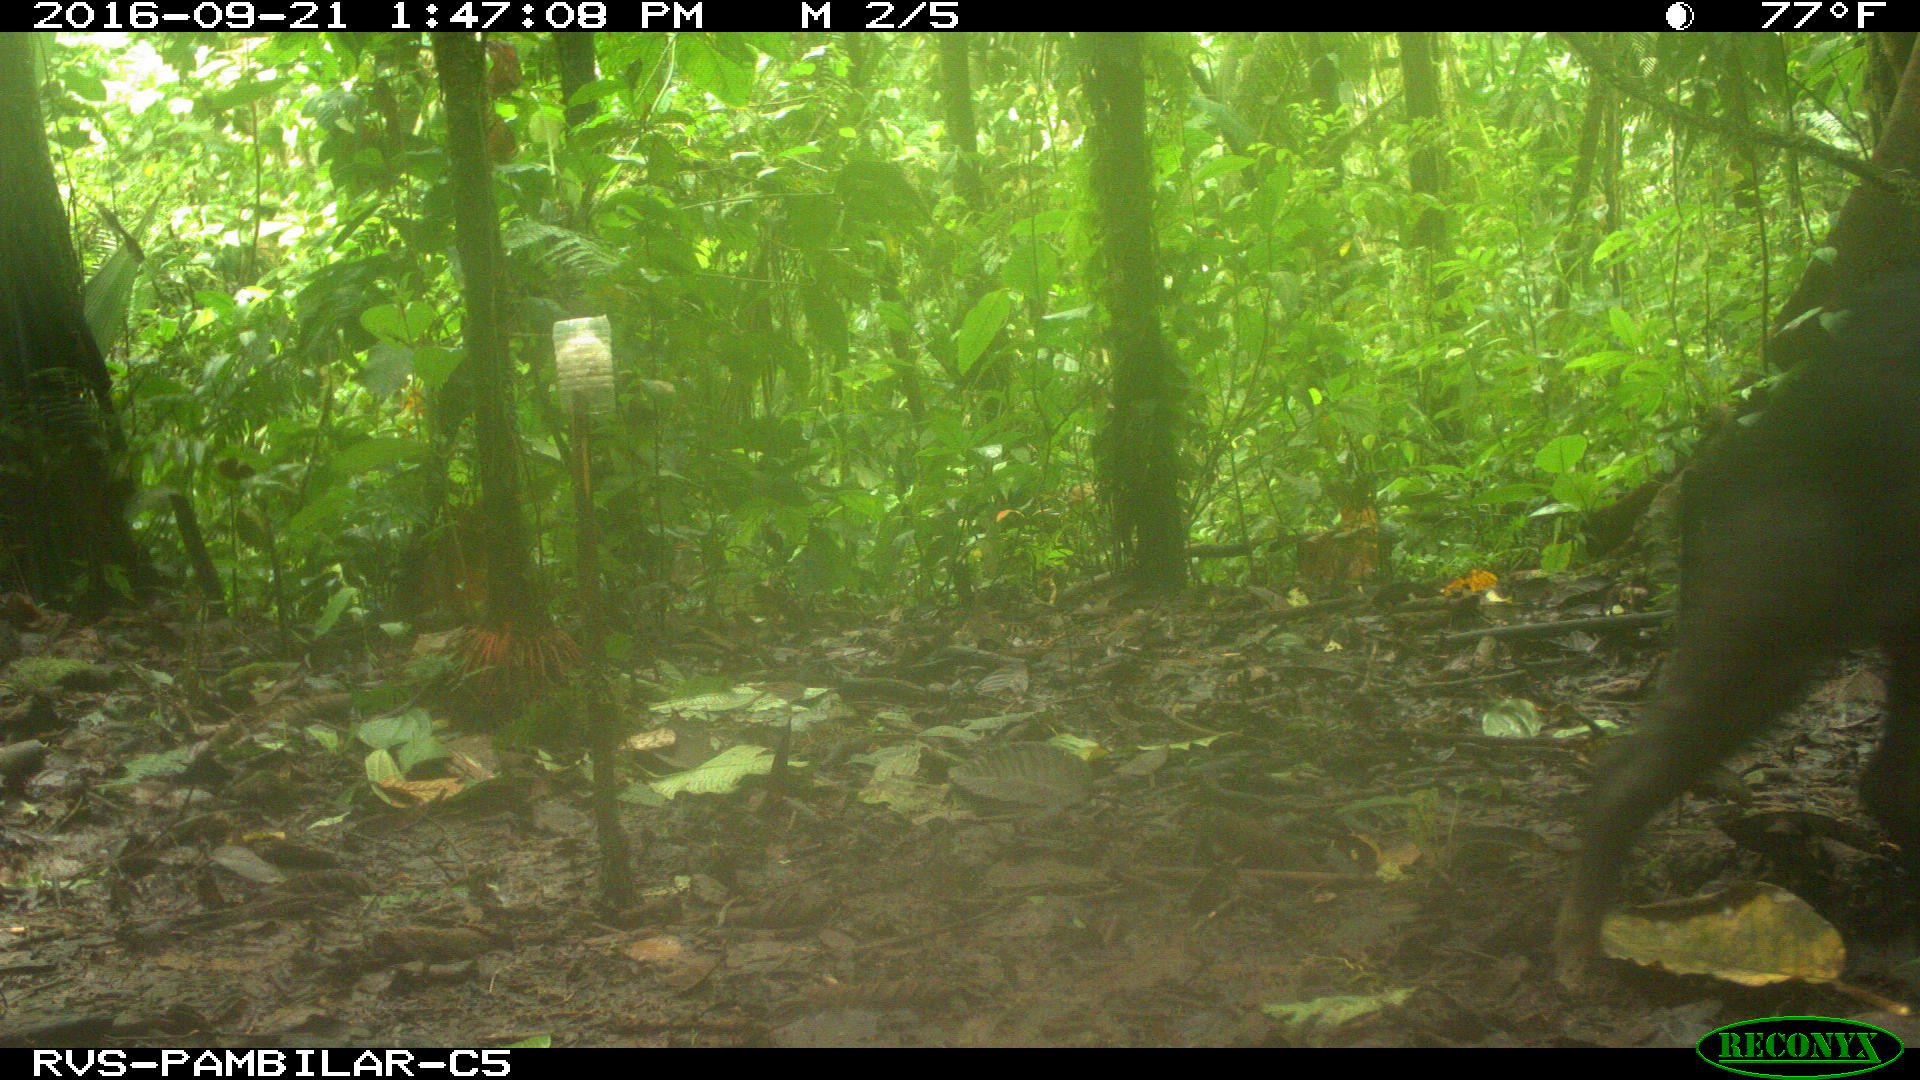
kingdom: Animalia
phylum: Chordata
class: Mammalia
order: Artiodactyla
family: Tayassuidae
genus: Tayassu
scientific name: Tayassu pecari
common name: White-lipped peccary
